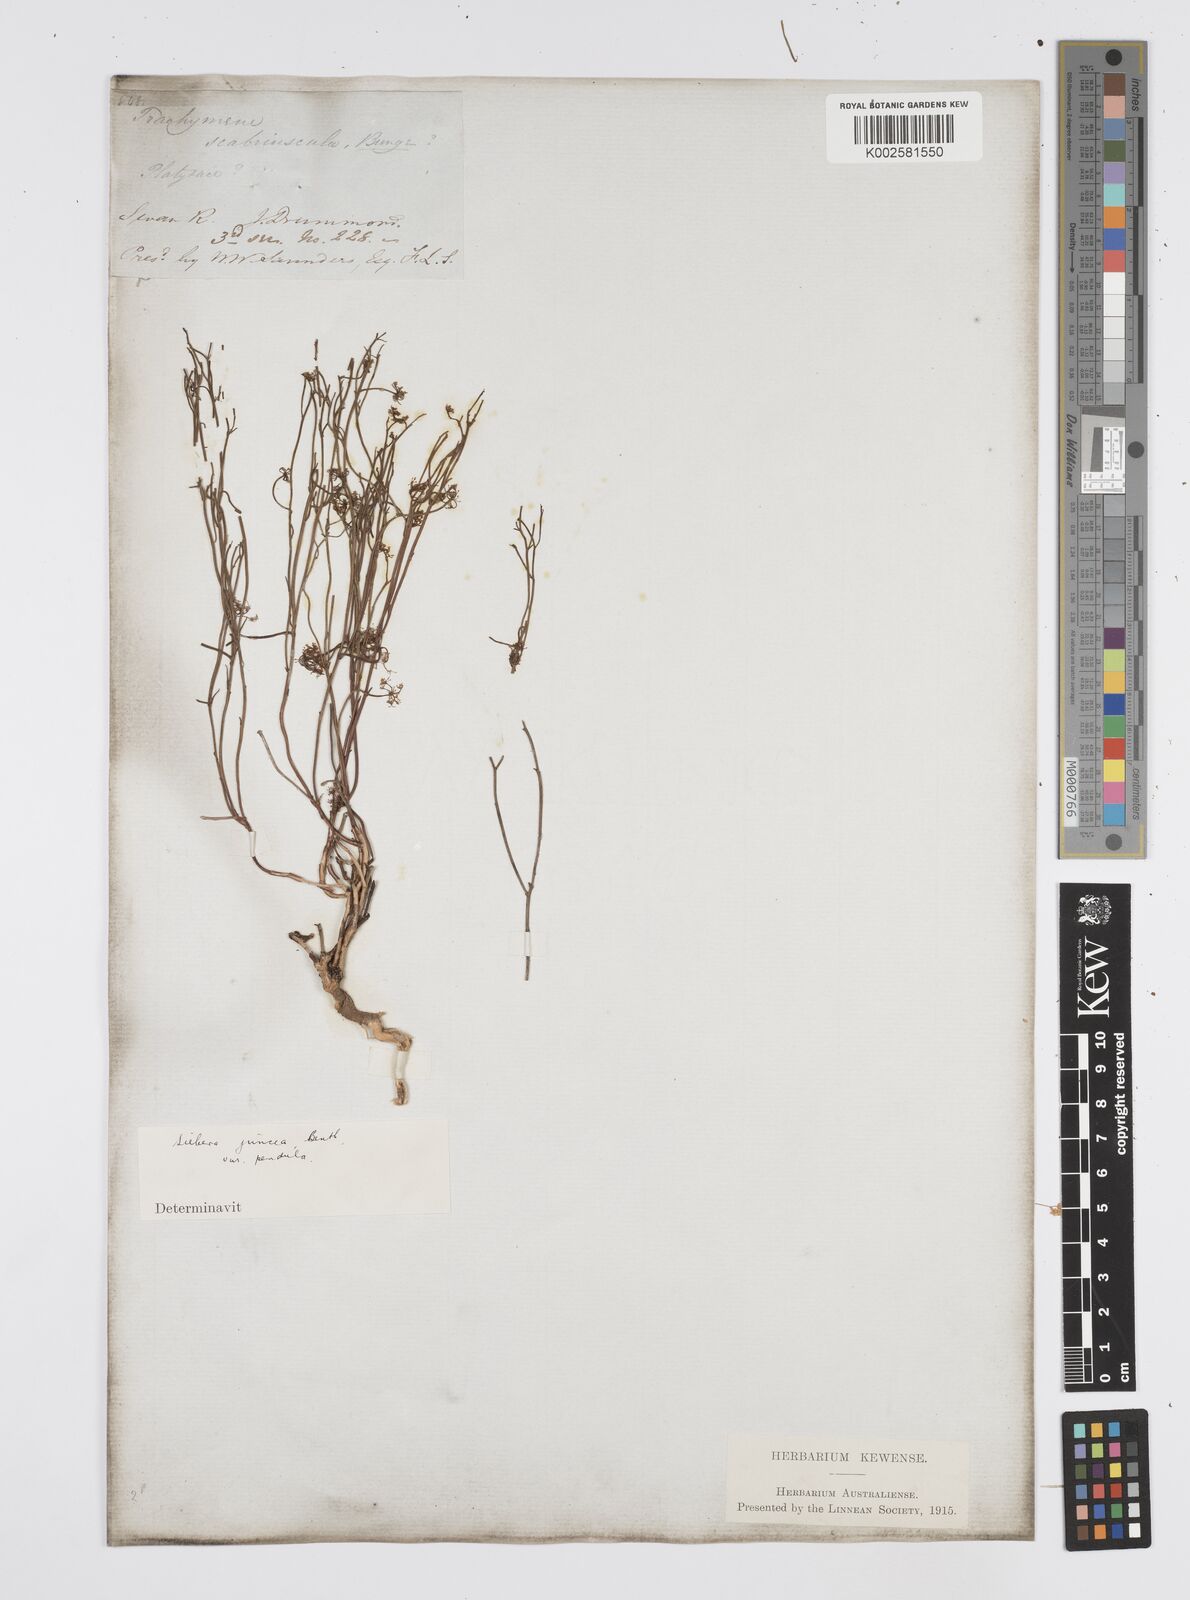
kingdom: Plantae
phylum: Tracheophyta
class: Magnoliopsida
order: Apiales
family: Apiaceae
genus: Centella
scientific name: Centella
